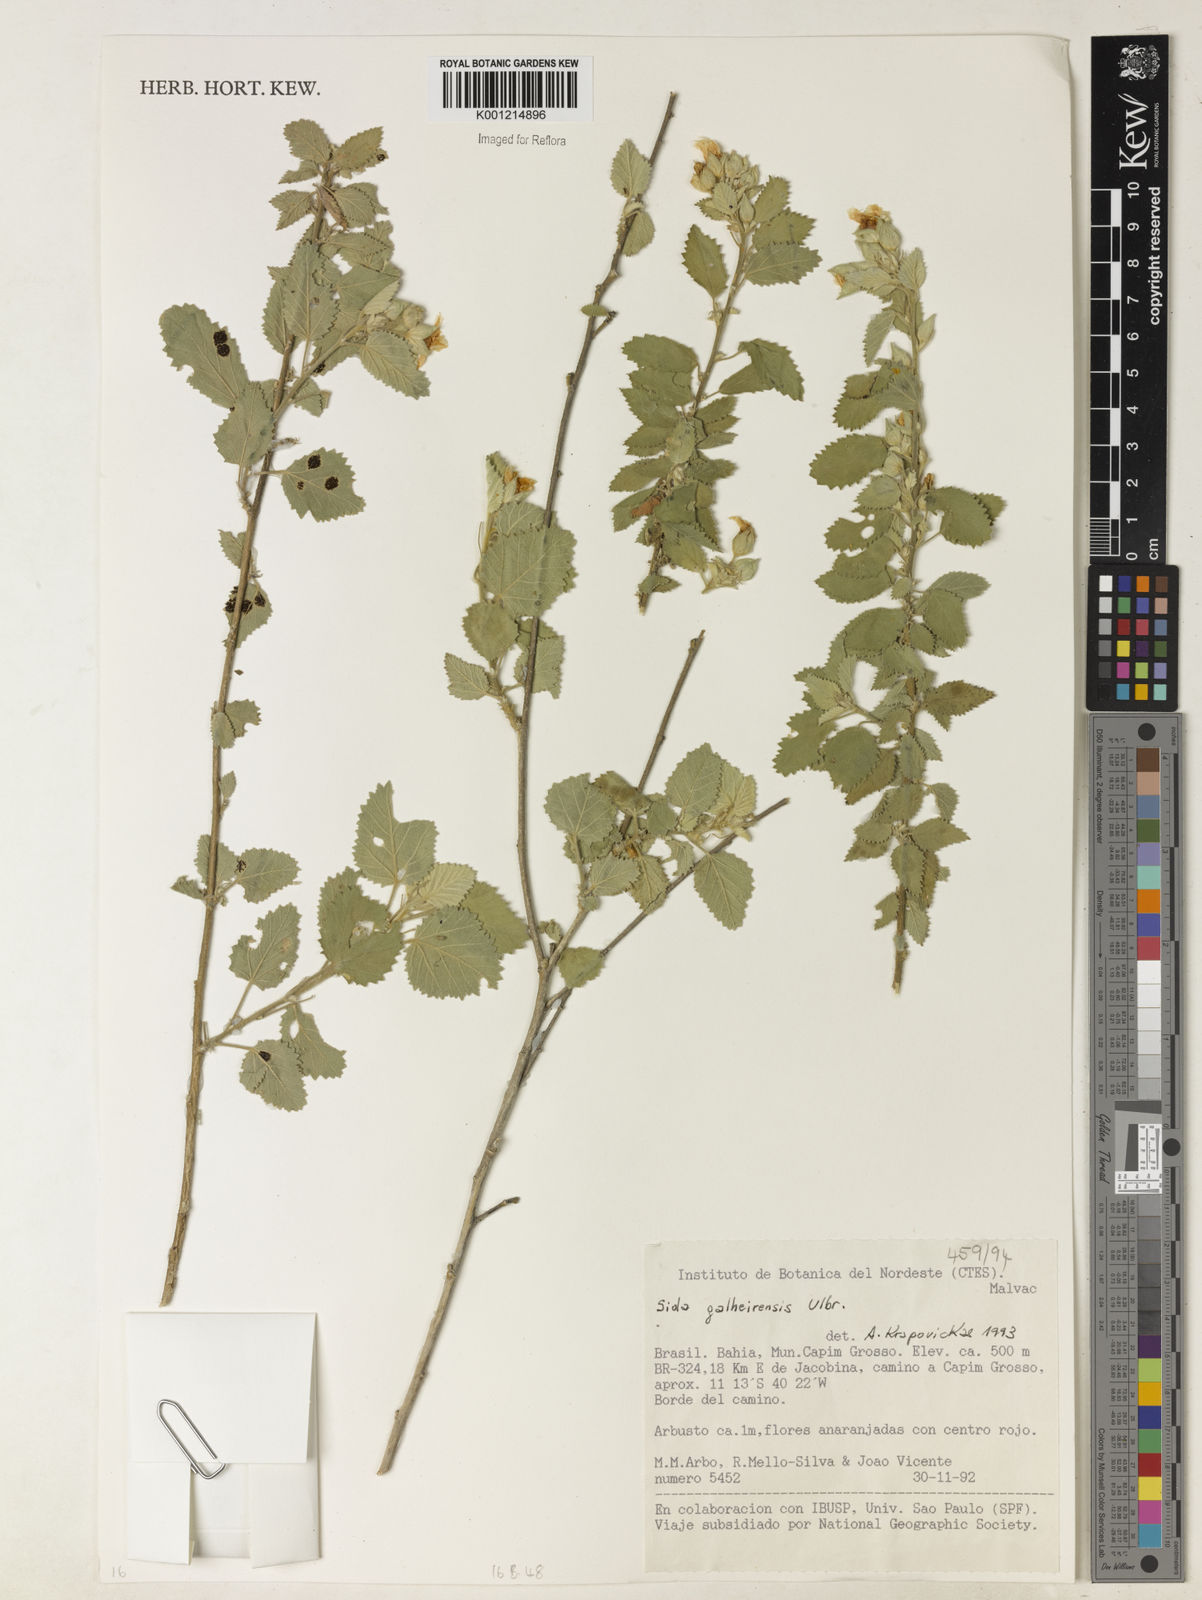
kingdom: Plantae
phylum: Tracheophyta
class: Magnoliopsida
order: Malvales
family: Malvaceae
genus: Sida
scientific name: Sida galheirensis
